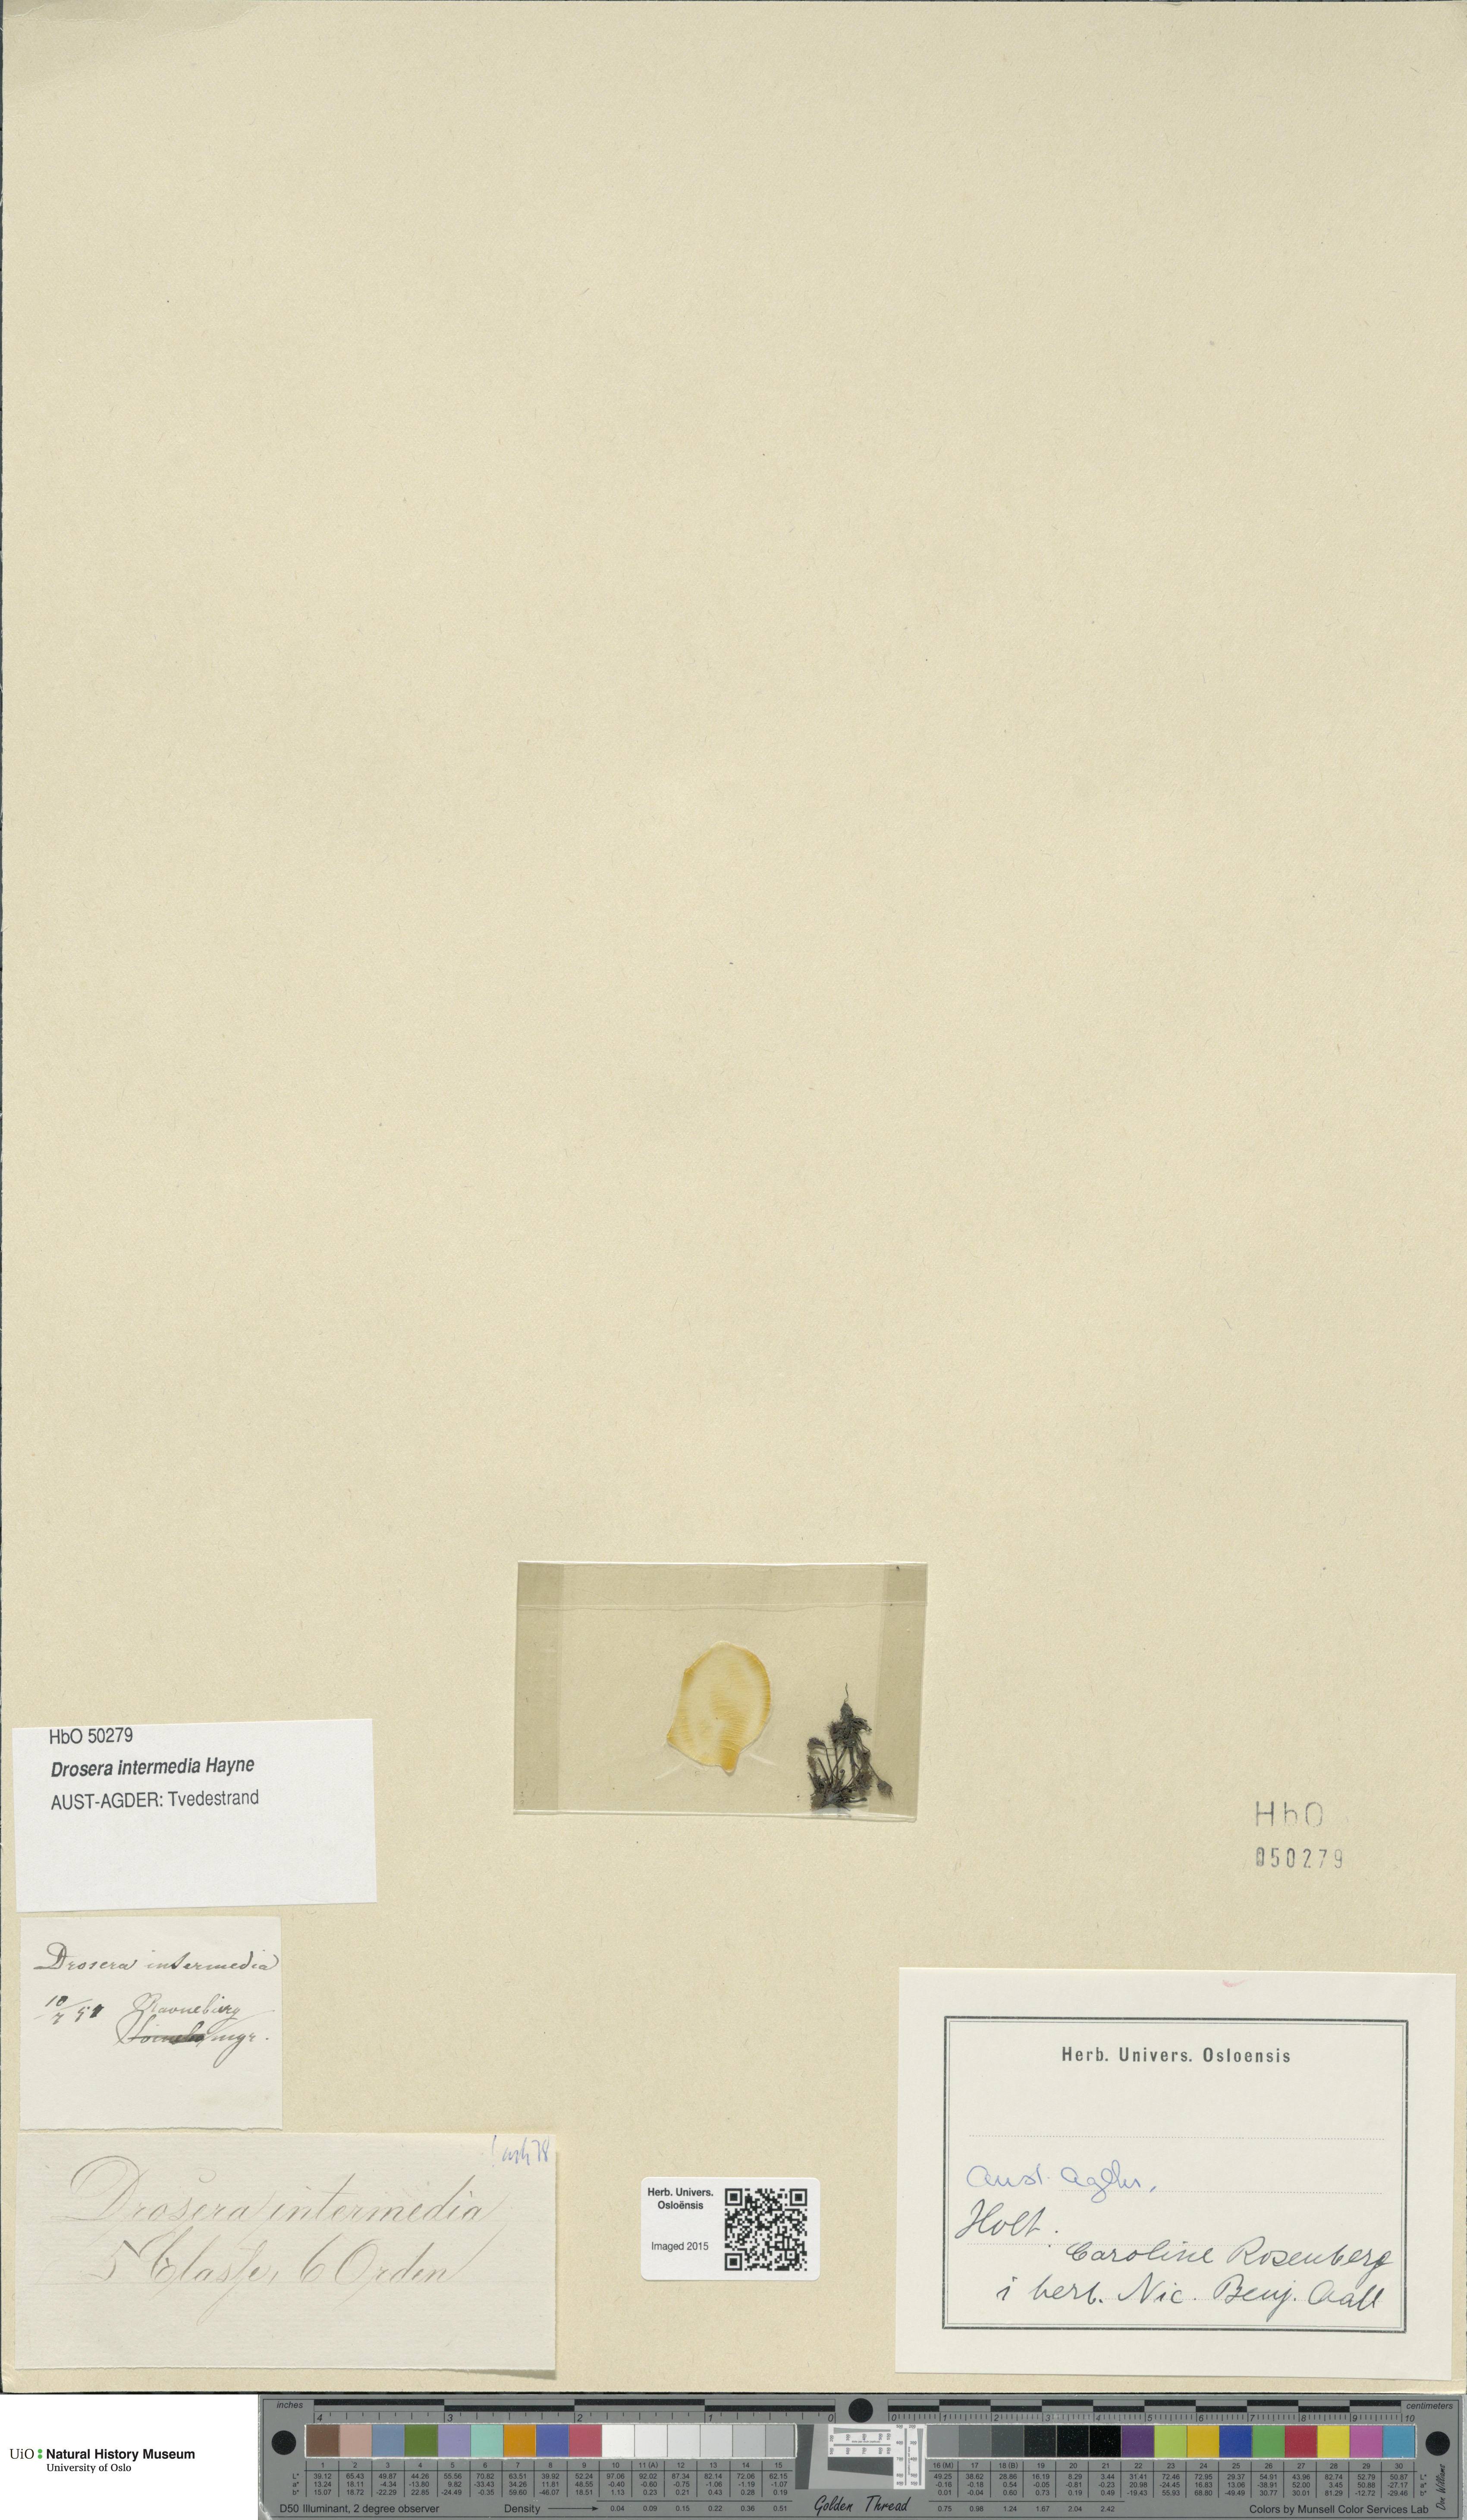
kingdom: Plantae
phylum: Tracheophyta
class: Magnoliopsida
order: Caryophyllales
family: Droseraceae
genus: Drosera
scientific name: Drosera intermedia
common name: Oblong-leaved sundew
